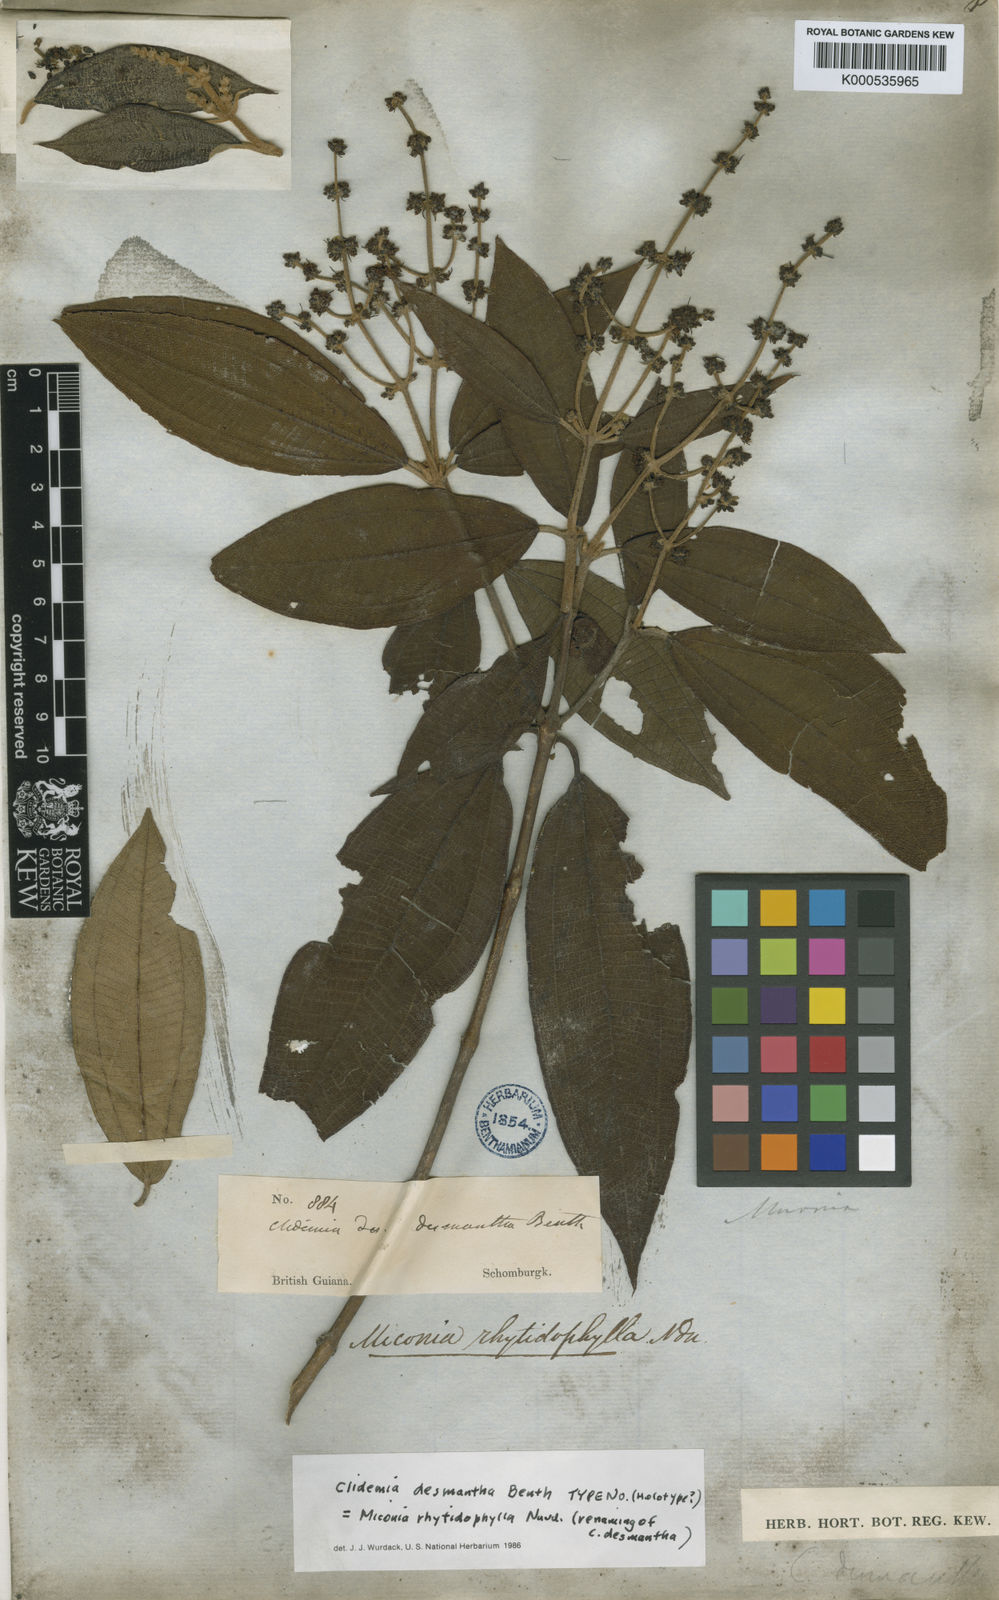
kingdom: Plantae
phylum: Tracheophyta
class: Magnoliopsida
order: Myrtales
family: Melastomataceae
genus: Miconia
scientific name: Miconia rhytidophylla
